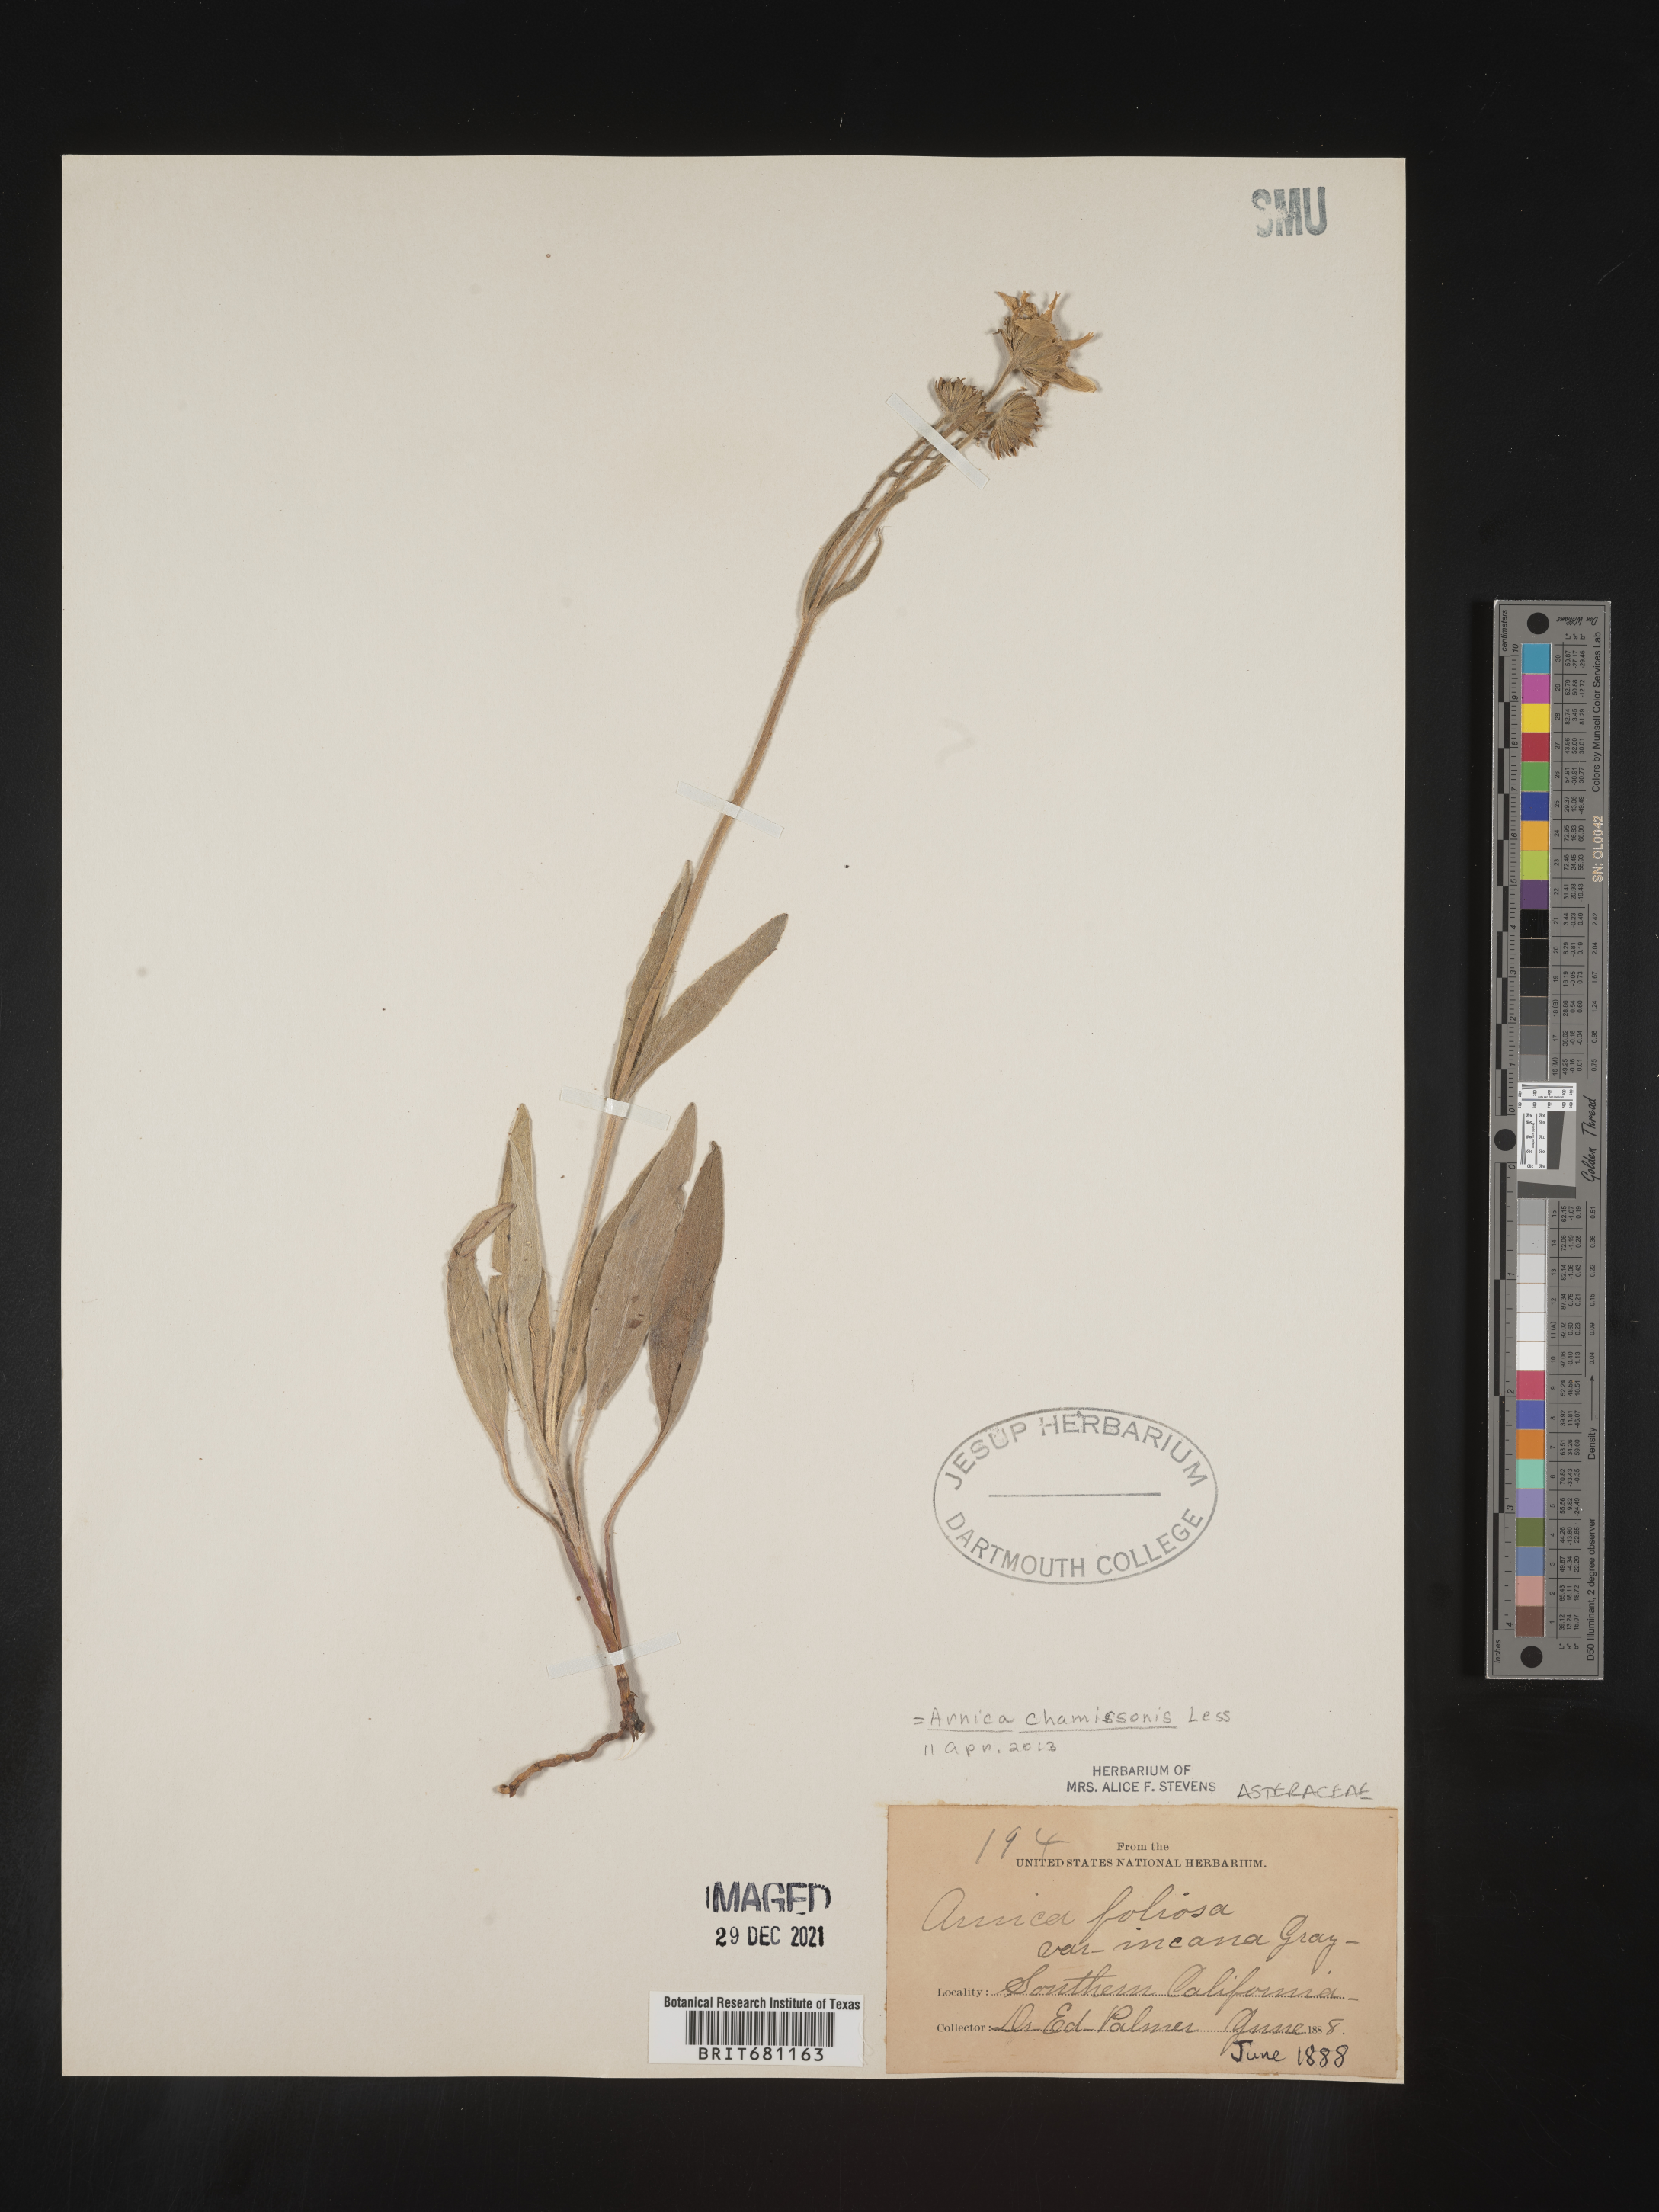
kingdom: Plantae
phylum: Tracheophyta
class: Magnoliopsida
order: Asterales
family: Asteraceae
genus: Arnica
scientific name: Arnica chamissonis
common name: Leafy arnica
